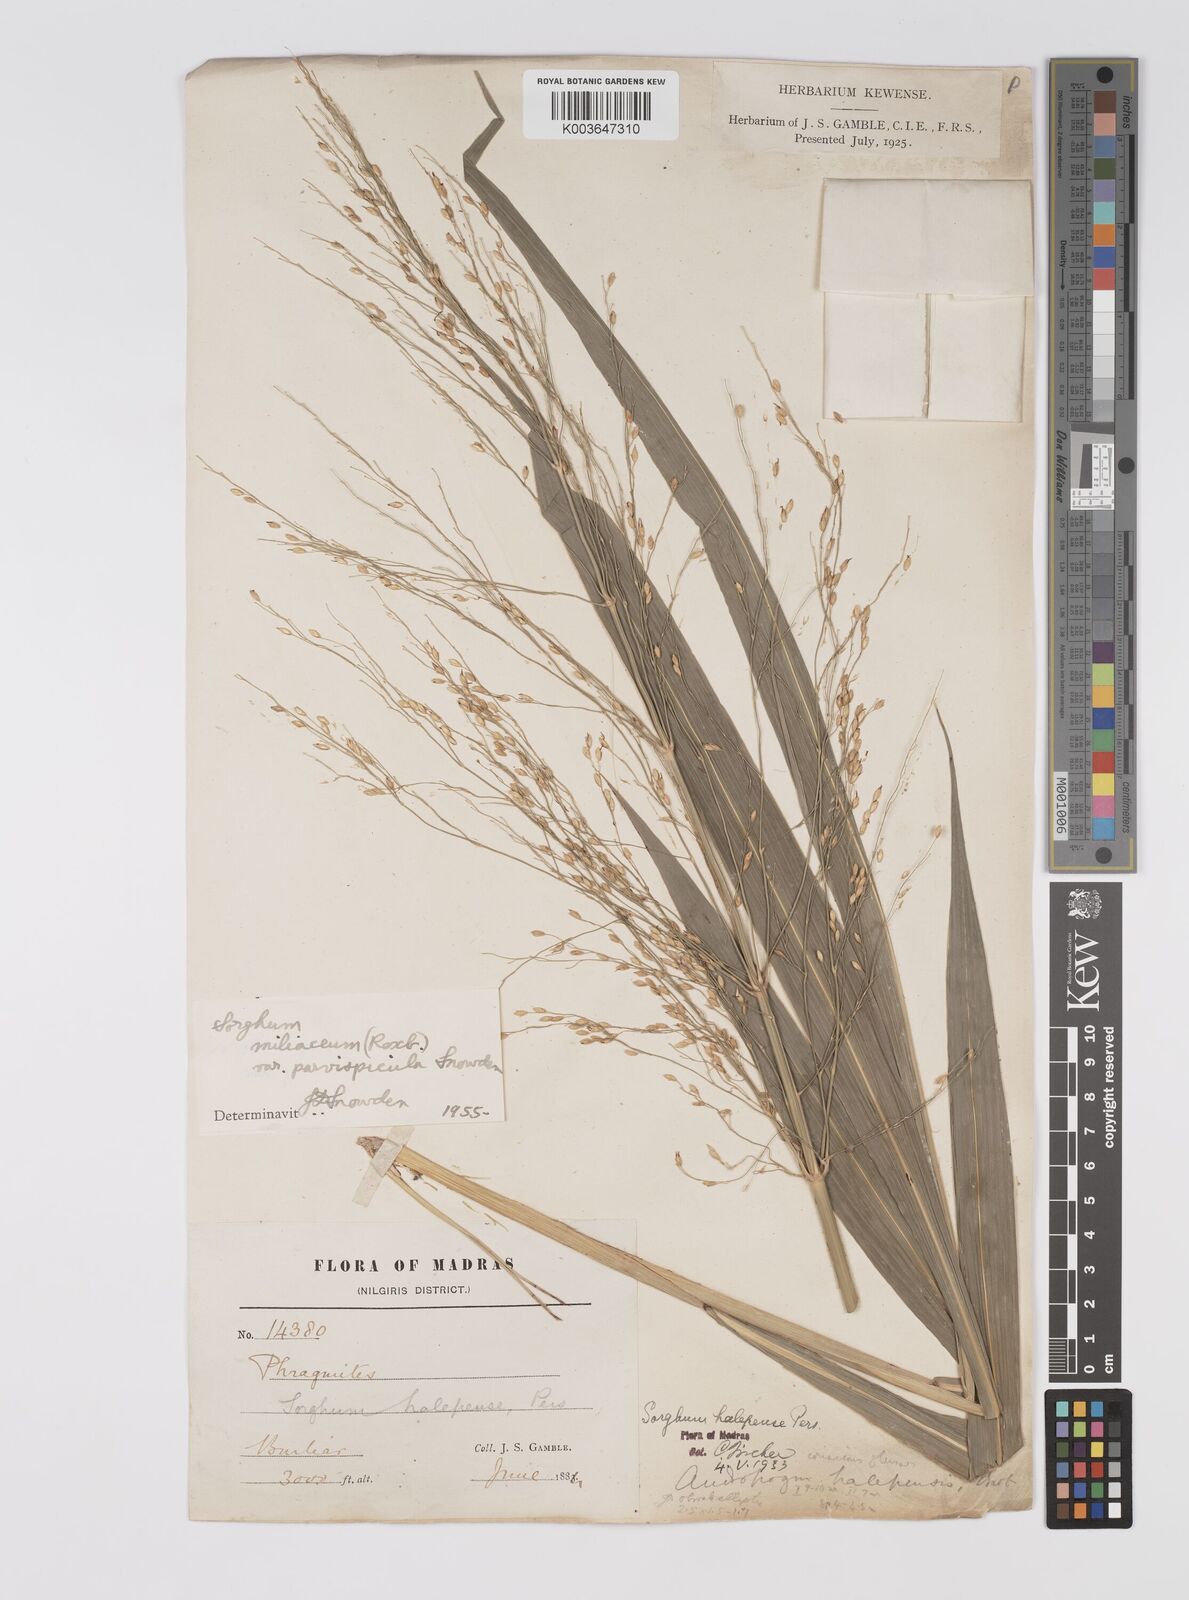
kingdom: Plantae
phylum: Tracheophyta
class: Liliopsida
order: Poales
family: Poaceae
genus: Sorghum
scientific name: Sorghum halepense
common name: Johnson-grass
